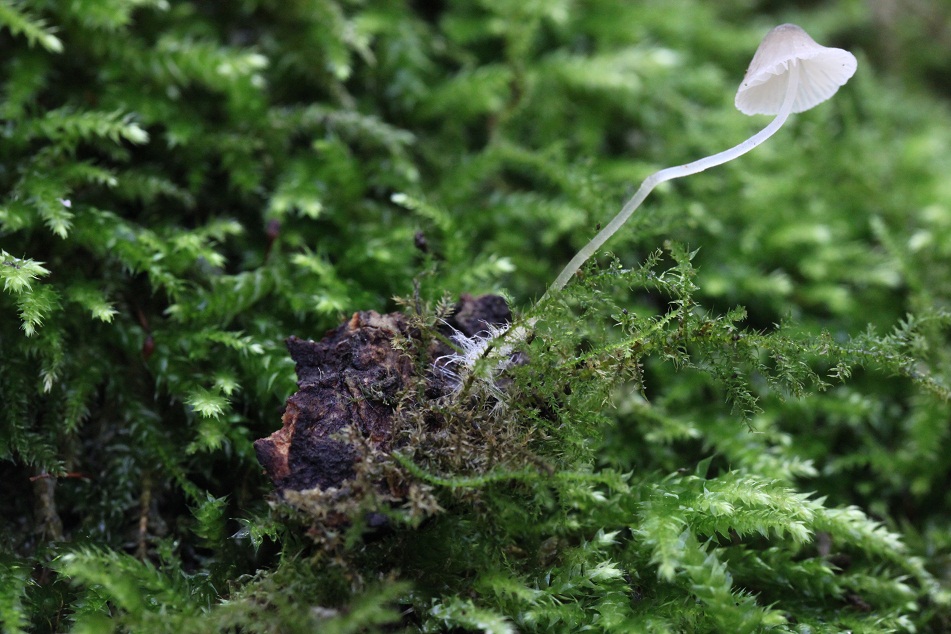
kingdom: Fungi
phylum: Basidiomycota
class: Agaricomycetes
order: Agaricales
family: Porotheleaceae
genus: Phloeomana
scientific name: Phloeomana hiemalis
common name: sen huesvamp
